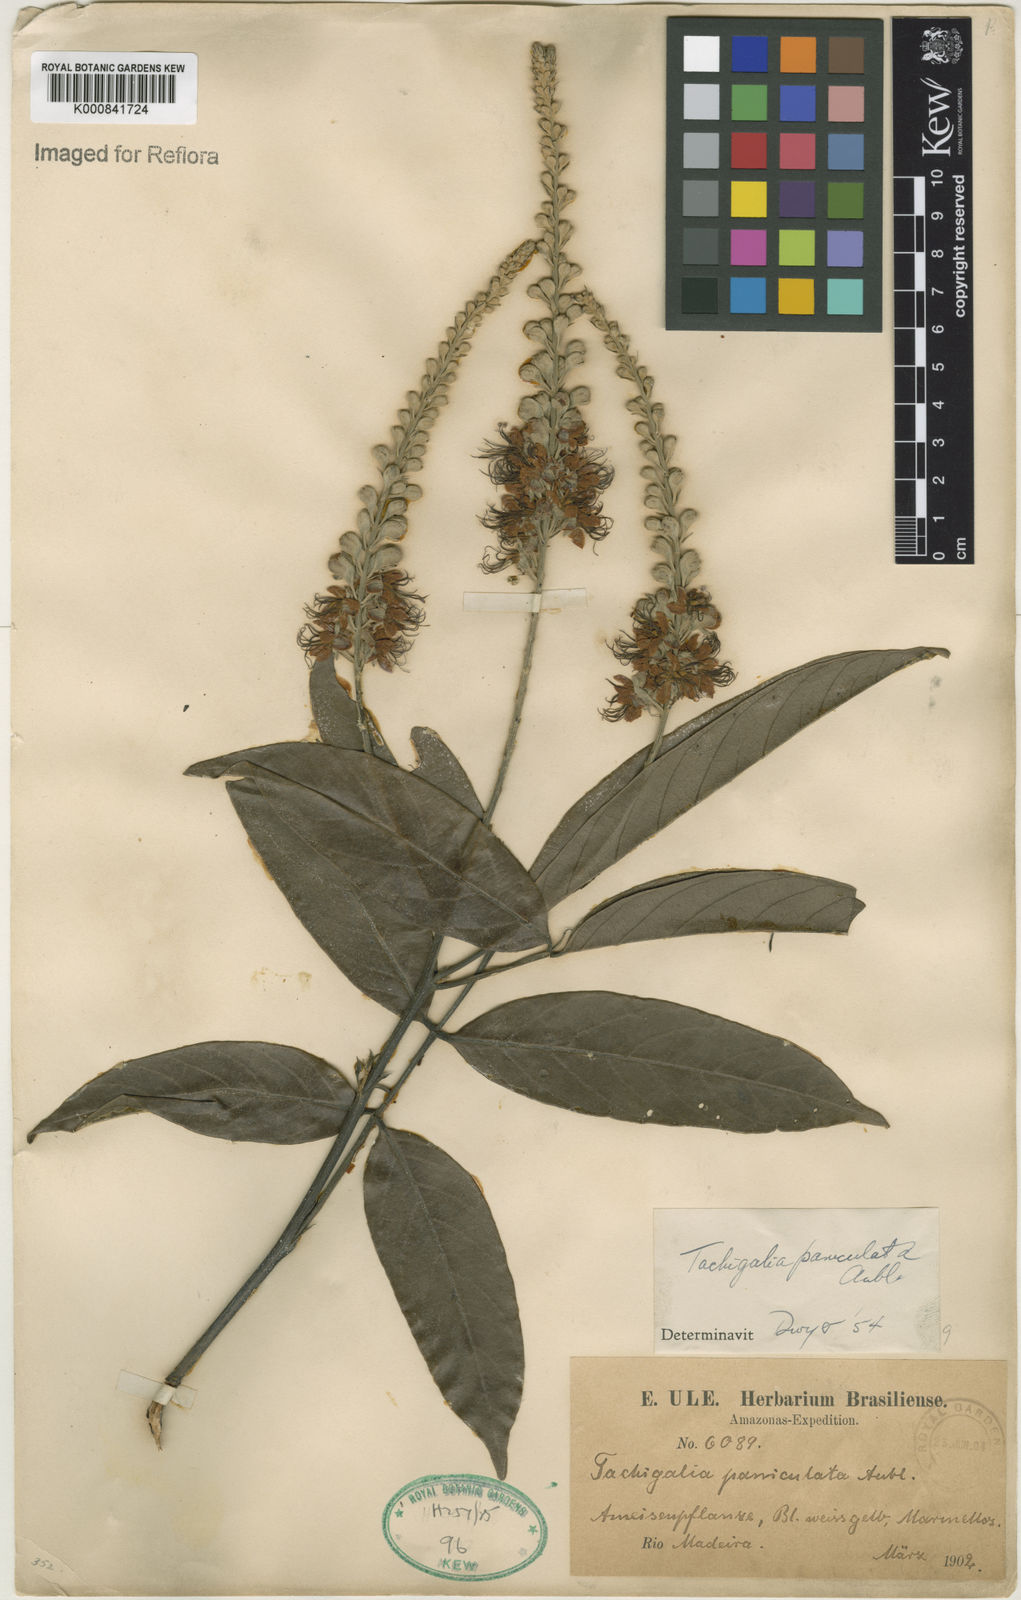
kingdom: Plantae
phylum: Tracheophyta
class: Magnoliopsida
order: Fabales
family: Fabaceae
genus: Tachigali
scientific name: Tachigali paniculata
